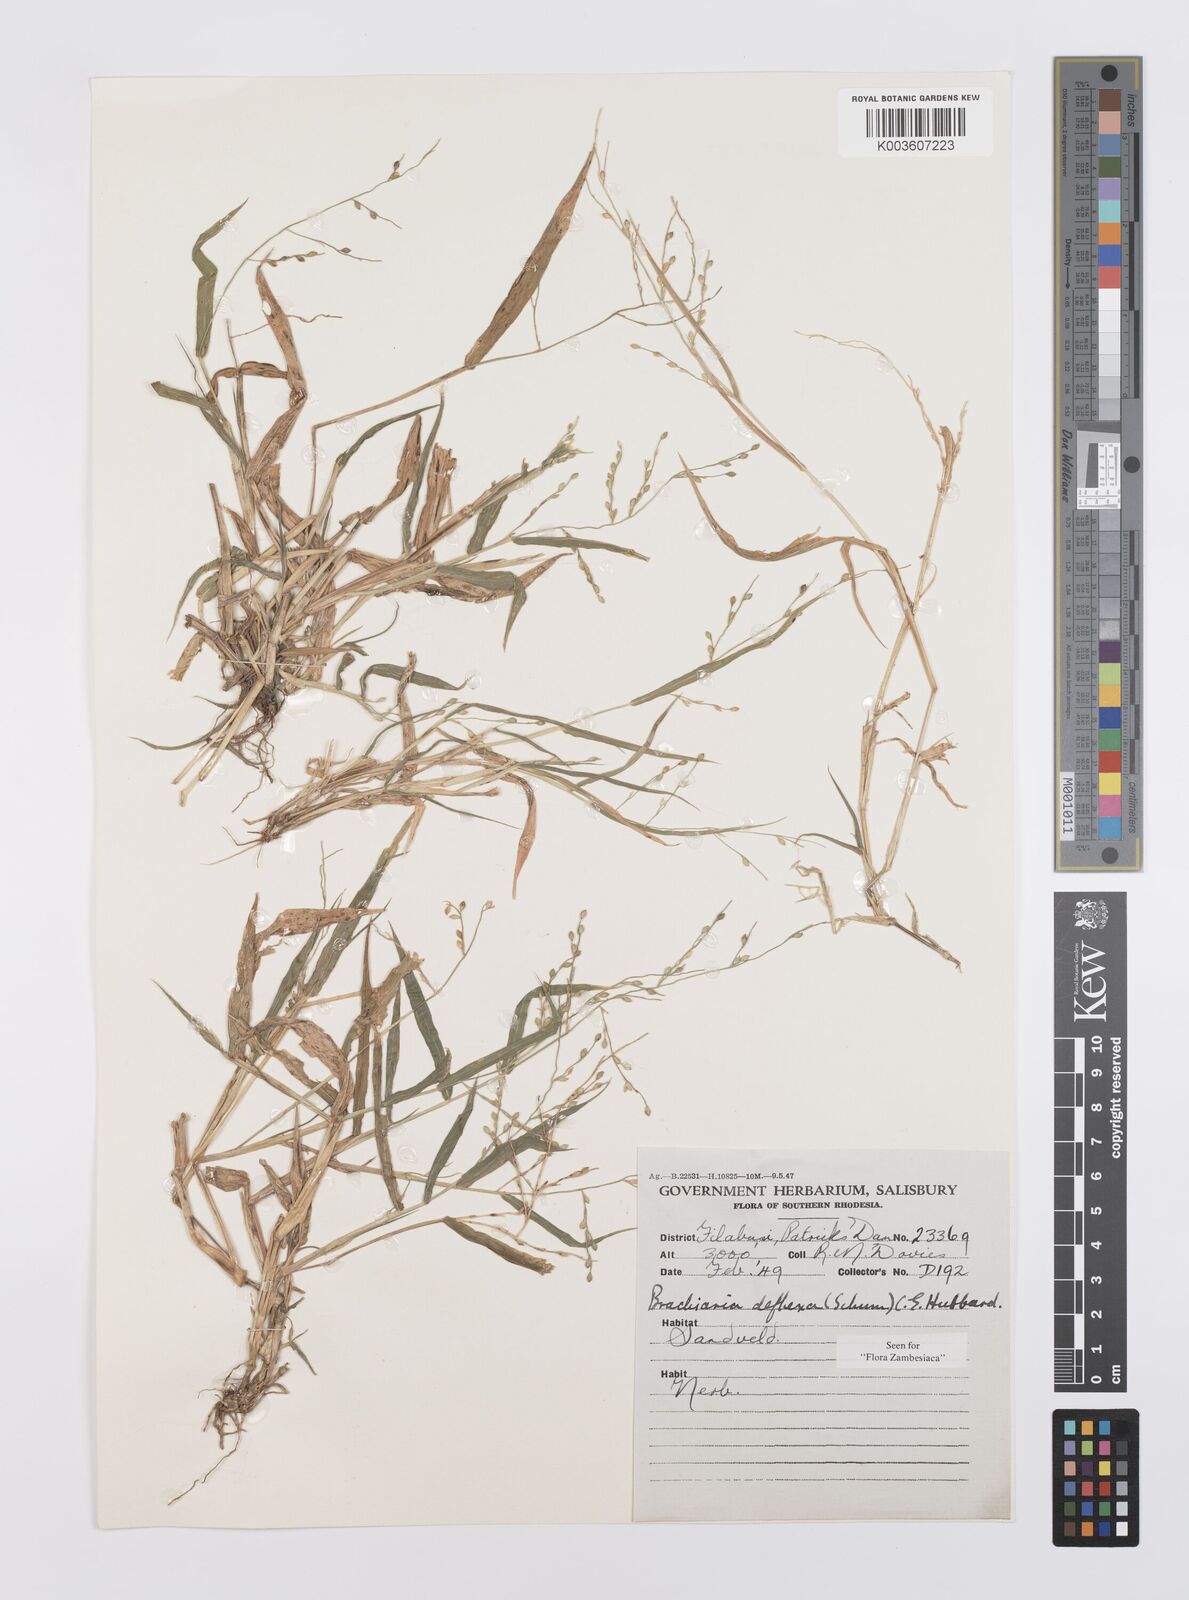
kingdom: Plantae
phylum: Tracheophyta
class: Liliopsida
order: Poales
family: Poaceae
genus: Urochloa
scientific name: Urochloa deflexa
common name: Guinea millet
